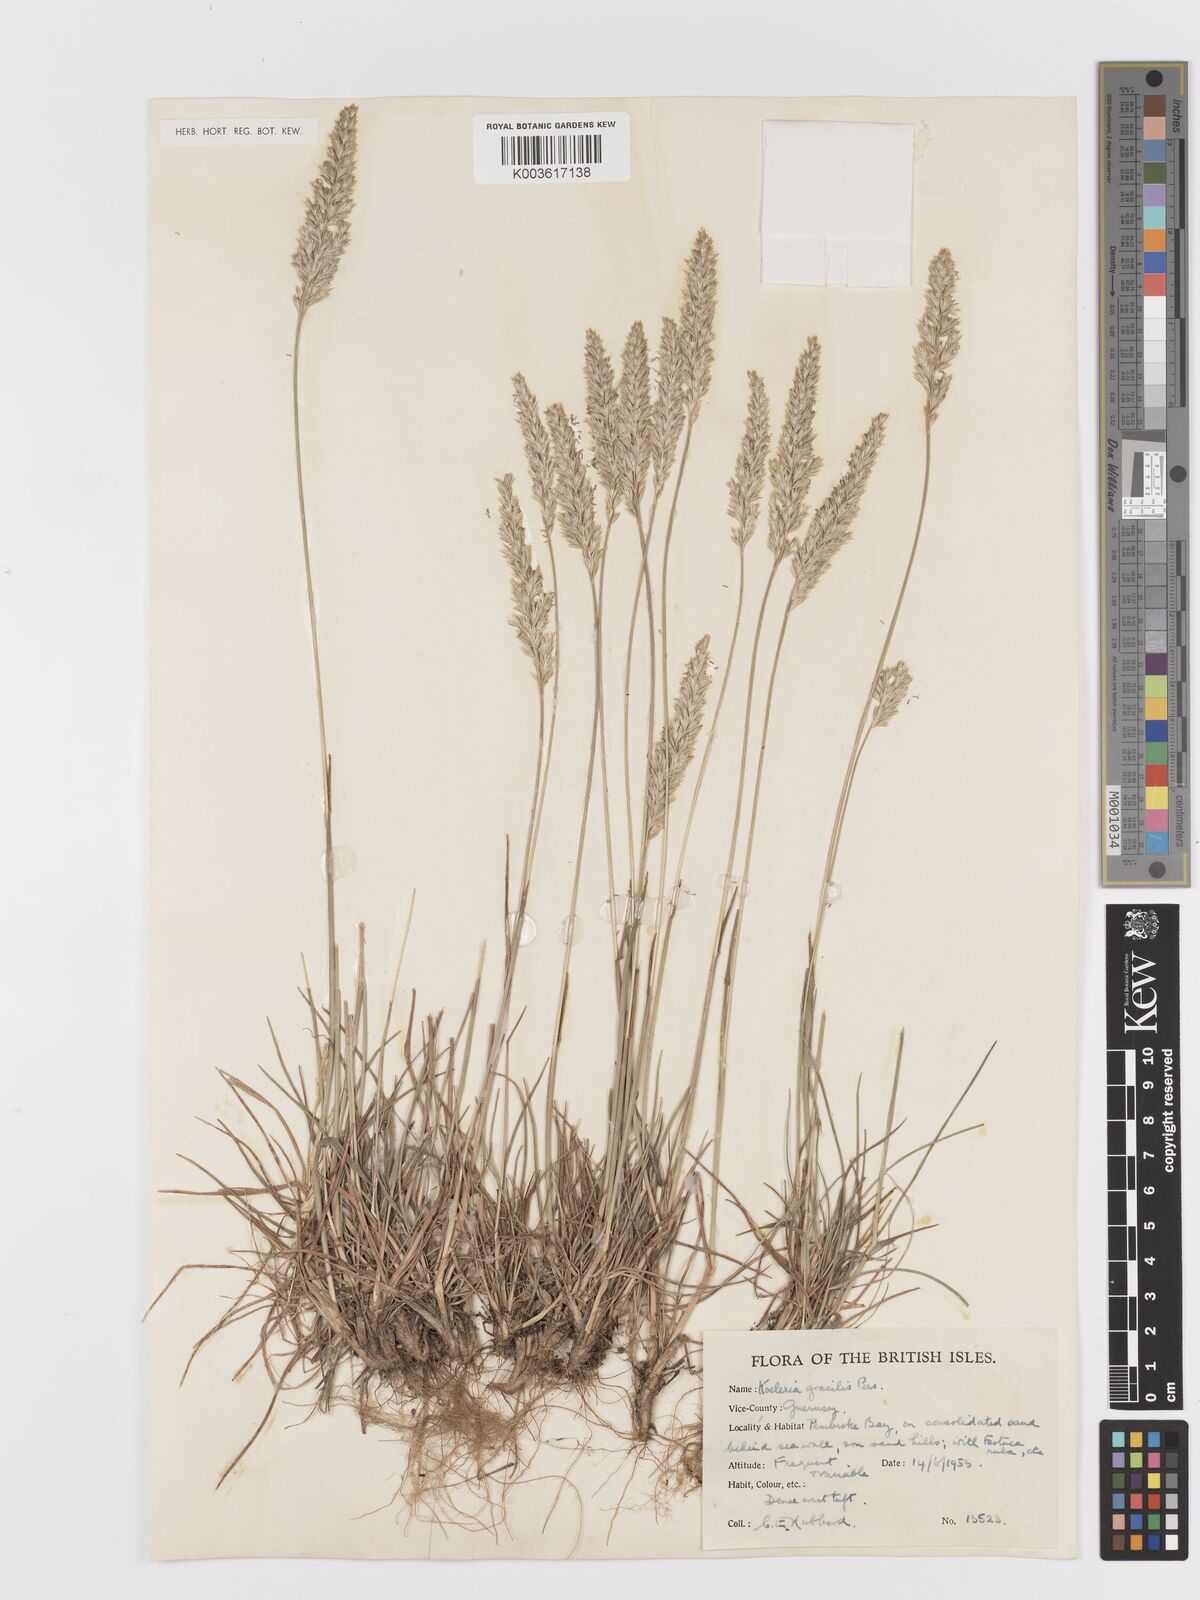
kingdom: Plantae
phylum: Tracheophyta
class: Liliopsida
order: Poales
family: Poaceae
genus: Koeleria
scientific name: Koeleria macrantha
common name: Crested hair-grass
